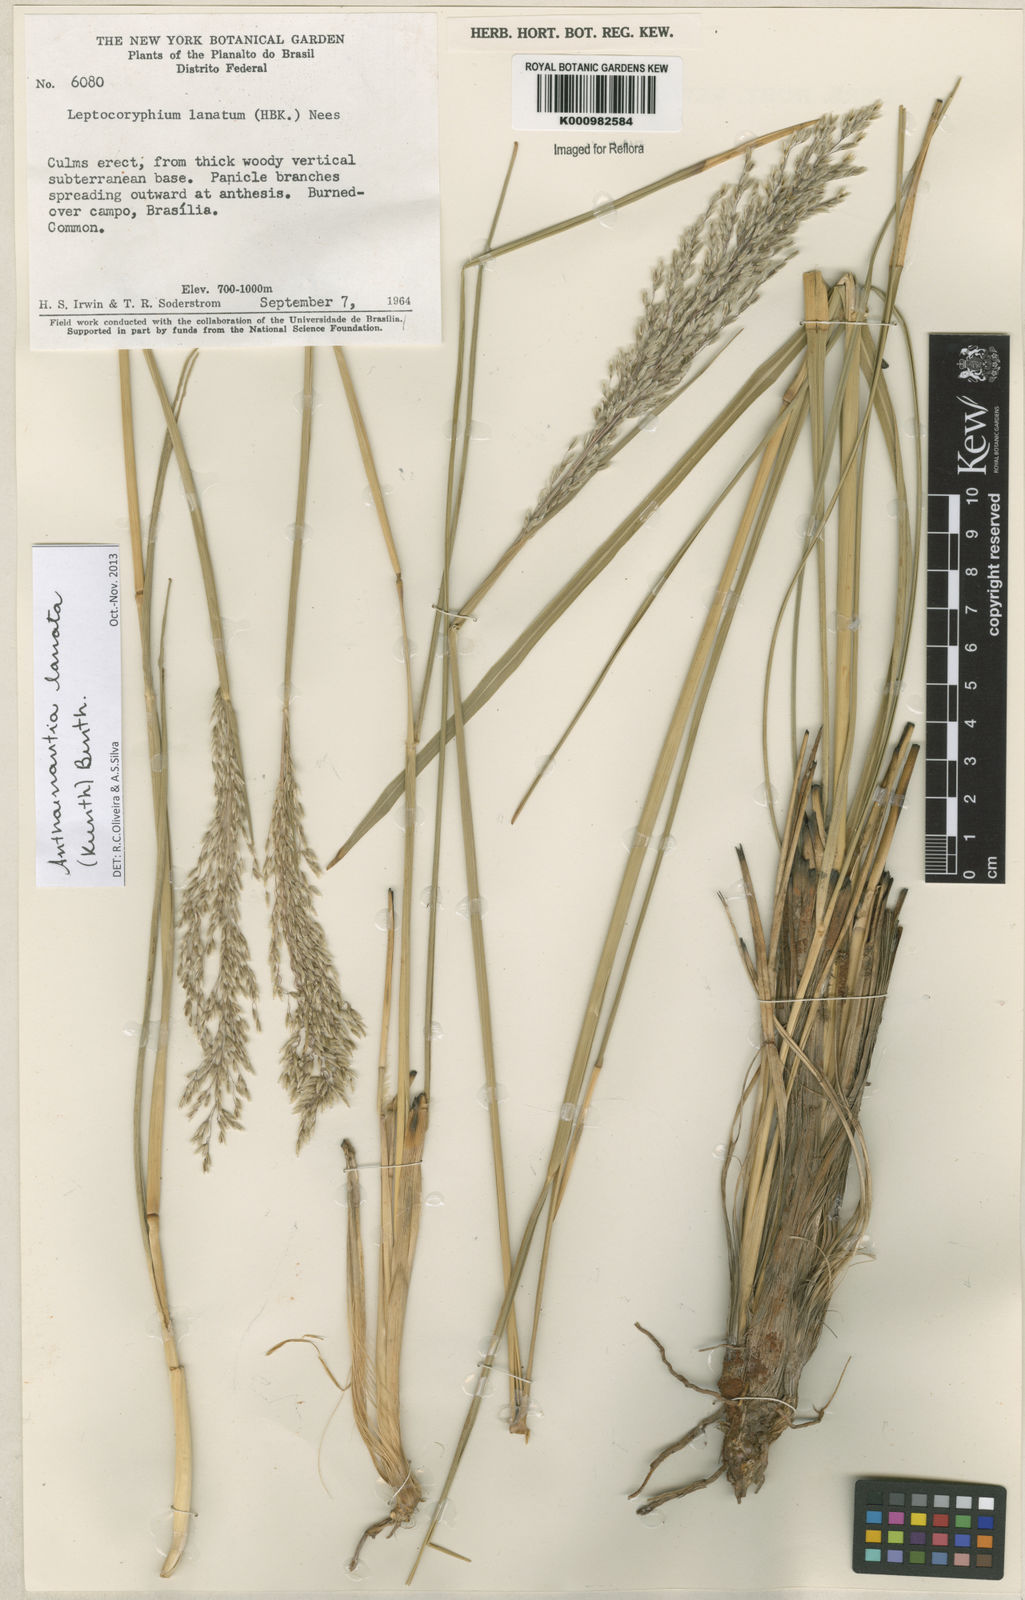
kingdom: Plantae
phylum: Tracheophyta
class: Liliopsida
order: Poales
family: Poaceae
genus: Anthenantia
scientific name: Anthenantia lanata
